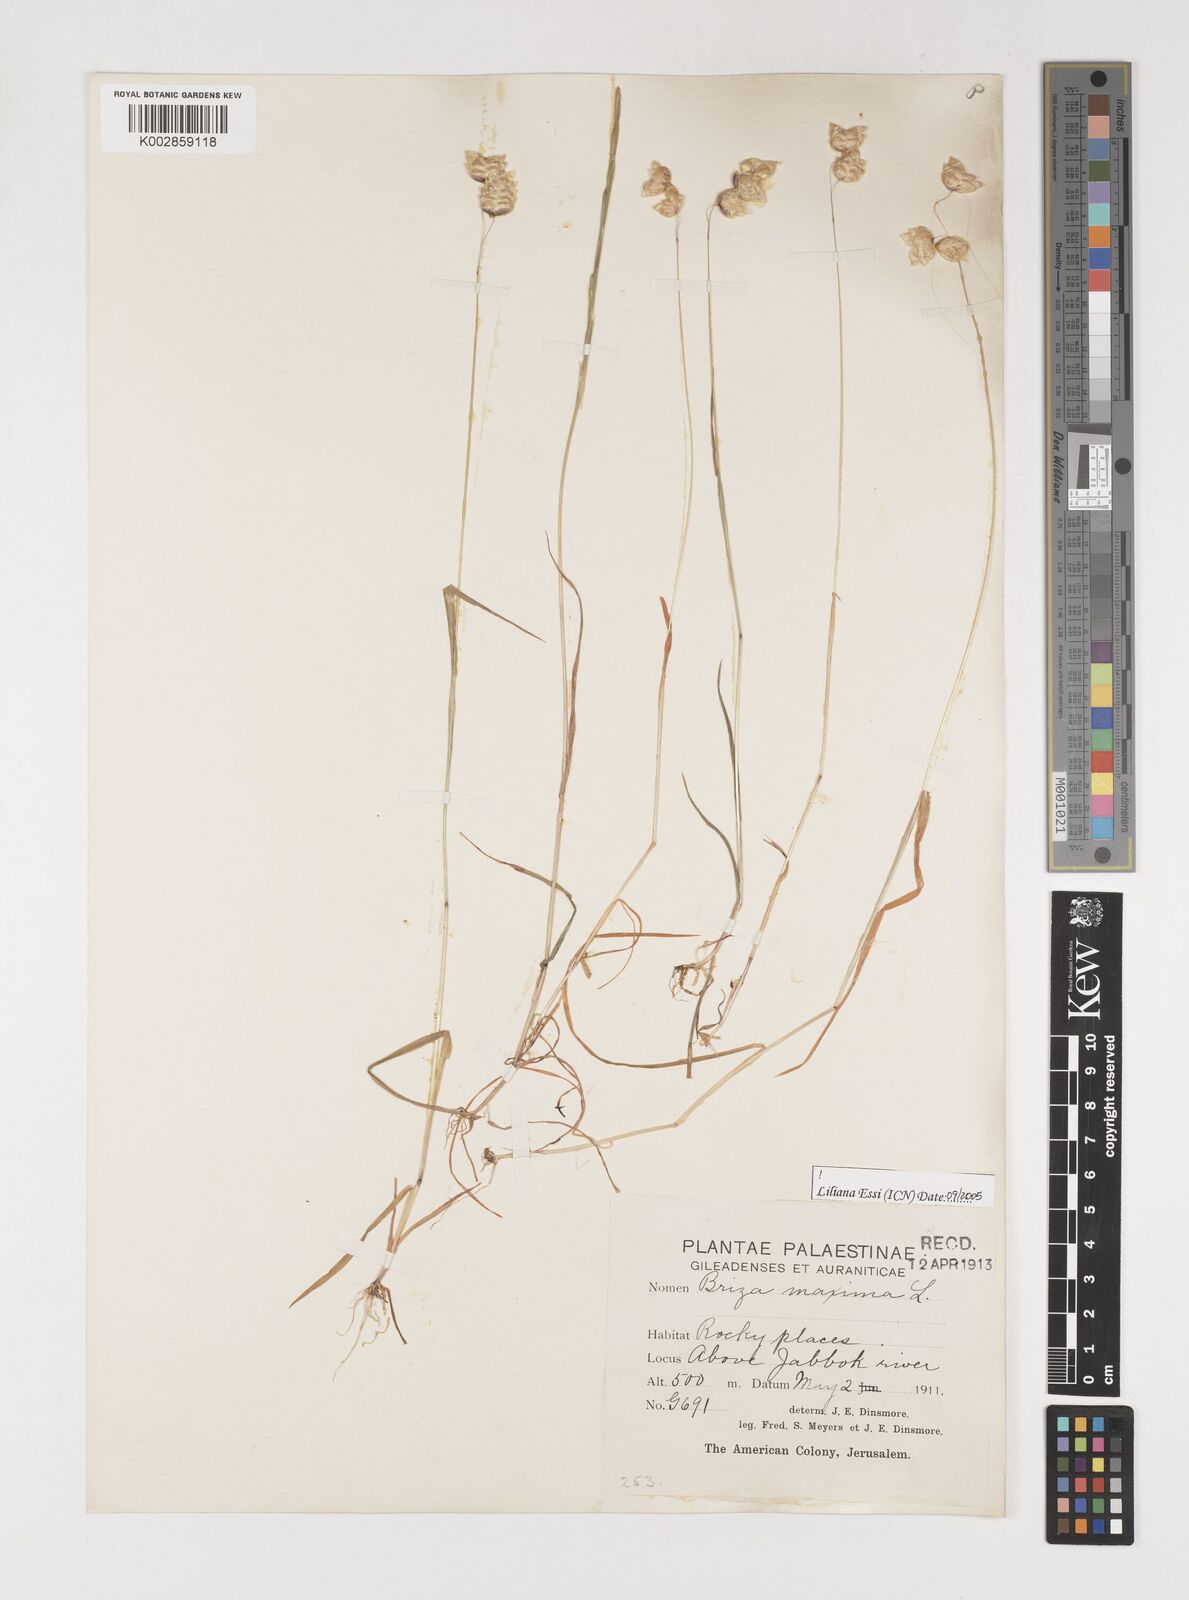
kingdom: Plantae
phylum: Tracheophyta
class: Liliopsida
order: Poales
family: Poaceae
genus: Briza
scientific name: Briza maxima
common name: Big quakinggrass
